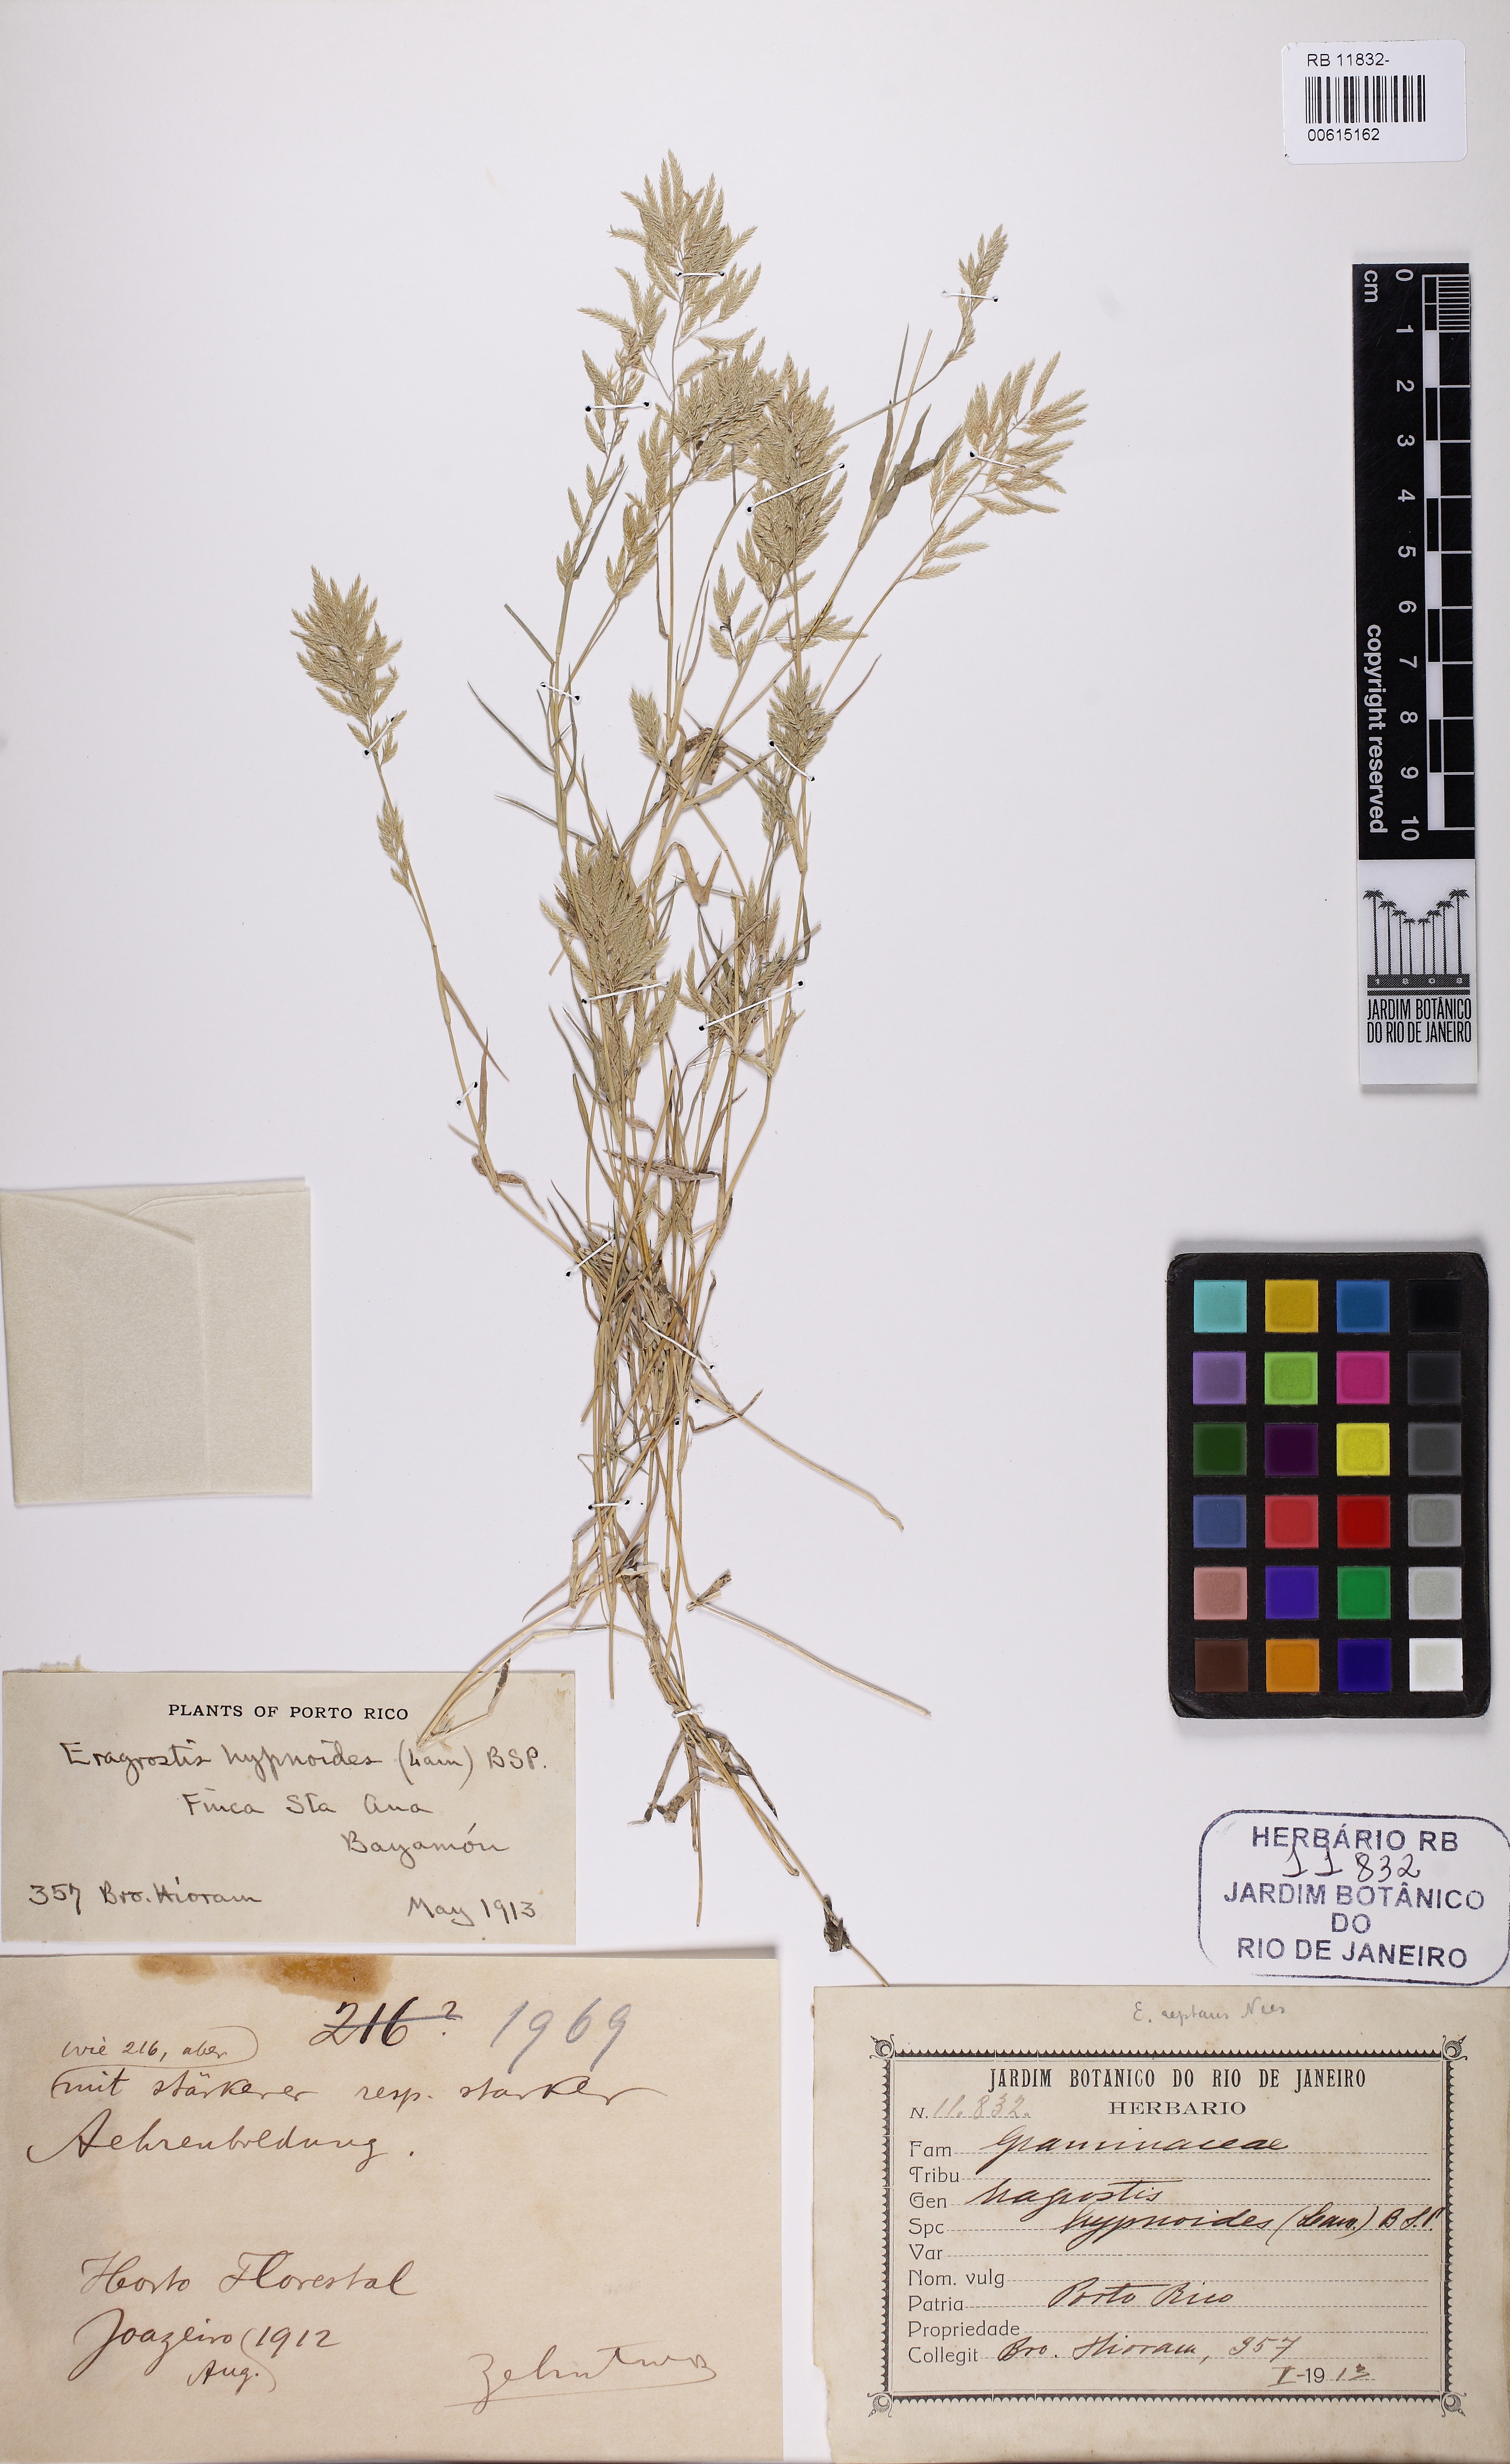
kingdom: Plantae
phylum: Tracheophyta
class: Liliopsida
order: Poales
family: Poaceae
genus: Eragrostis
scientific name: Eragrostis hypnoides
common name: Creeping love grass
